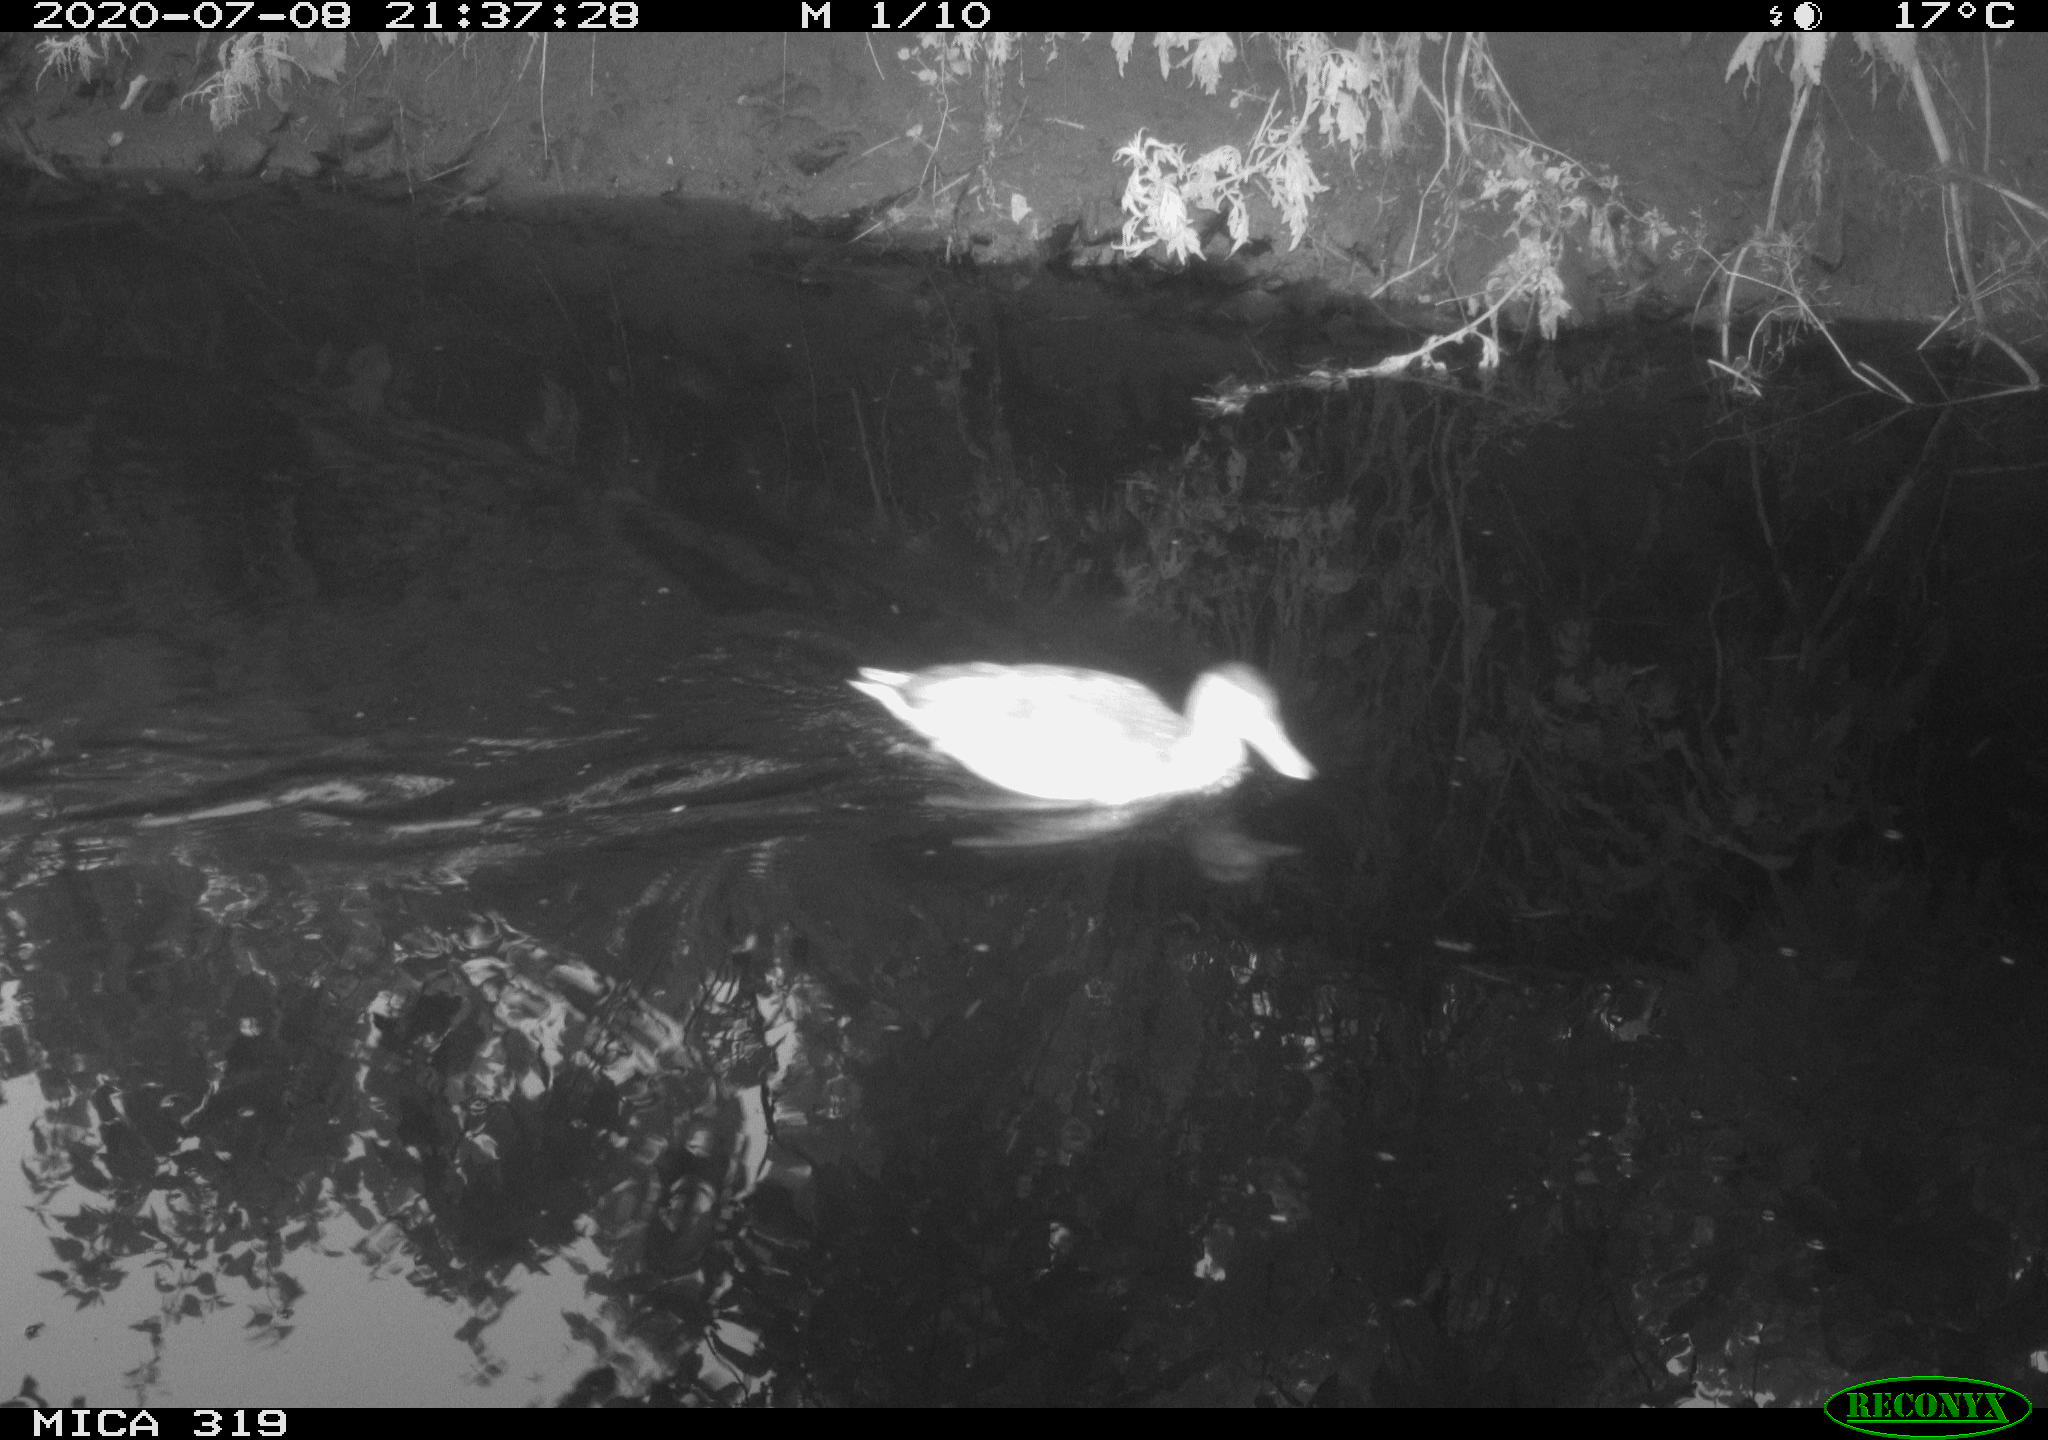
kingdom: Animalia
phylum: Chordata
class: Aves
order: Anseriformes
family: Anatidae
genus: Anas
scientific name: Anas platyrhynchos
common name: Mallard
